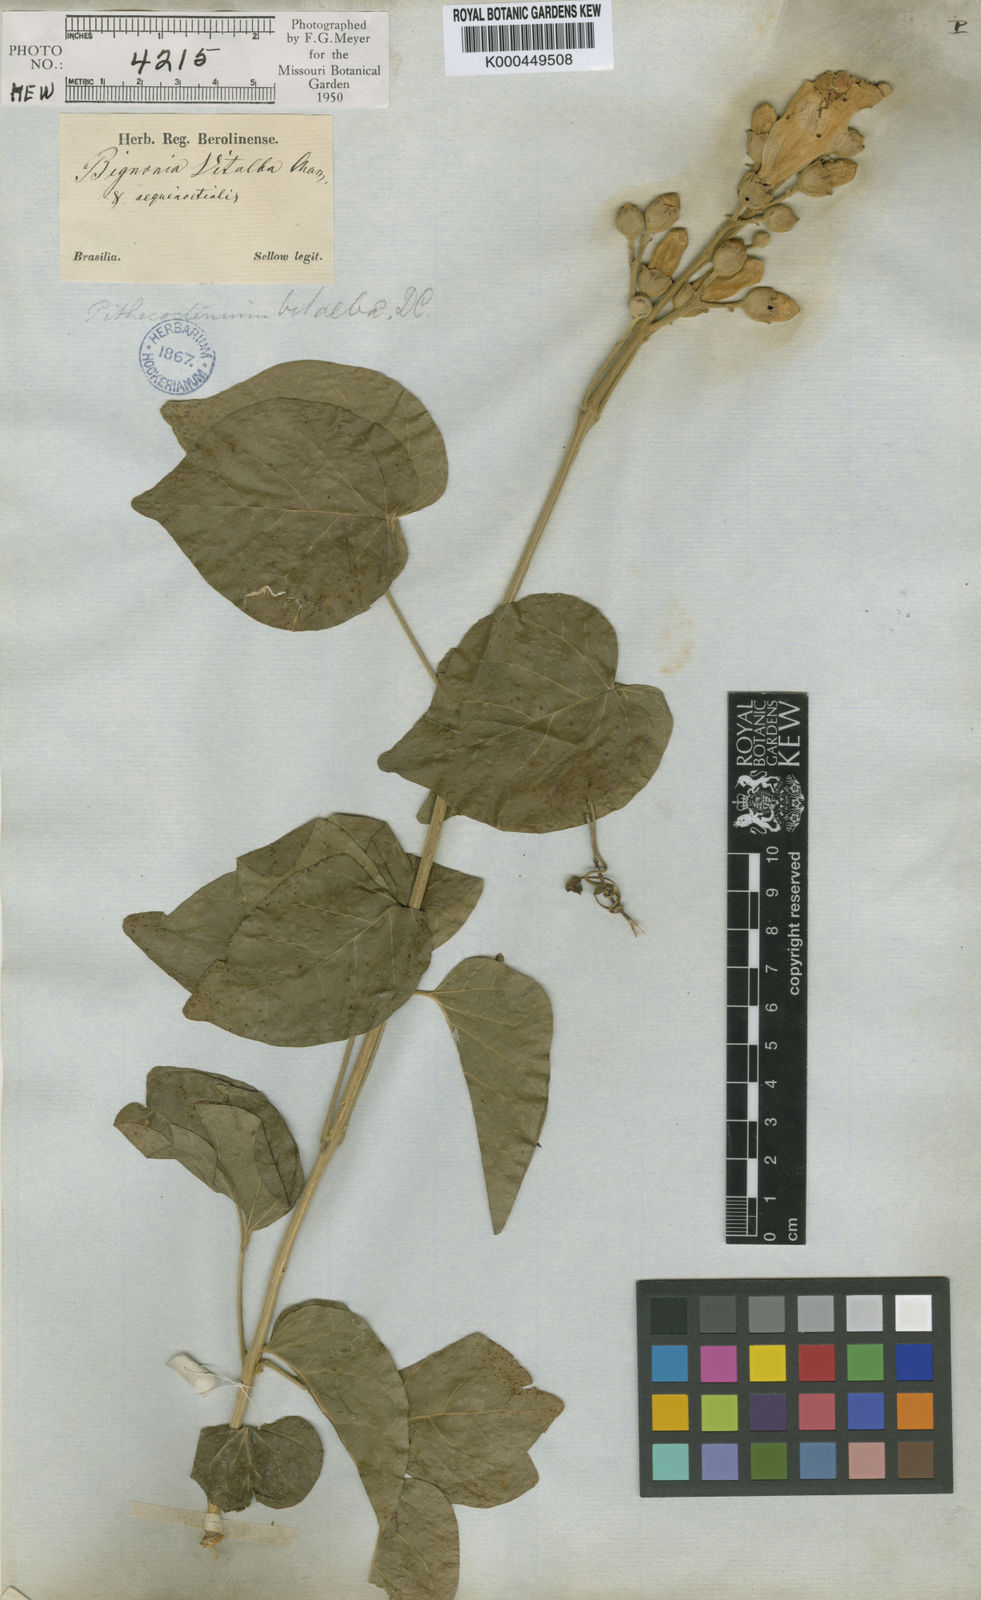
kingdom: Plantae
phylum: Tracheophyta
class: Magnoliopsida
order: Lamiales
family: Bignoniaceae
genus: Amphilophium
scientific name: Amphilophium crucigerum
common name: Monkey comb
